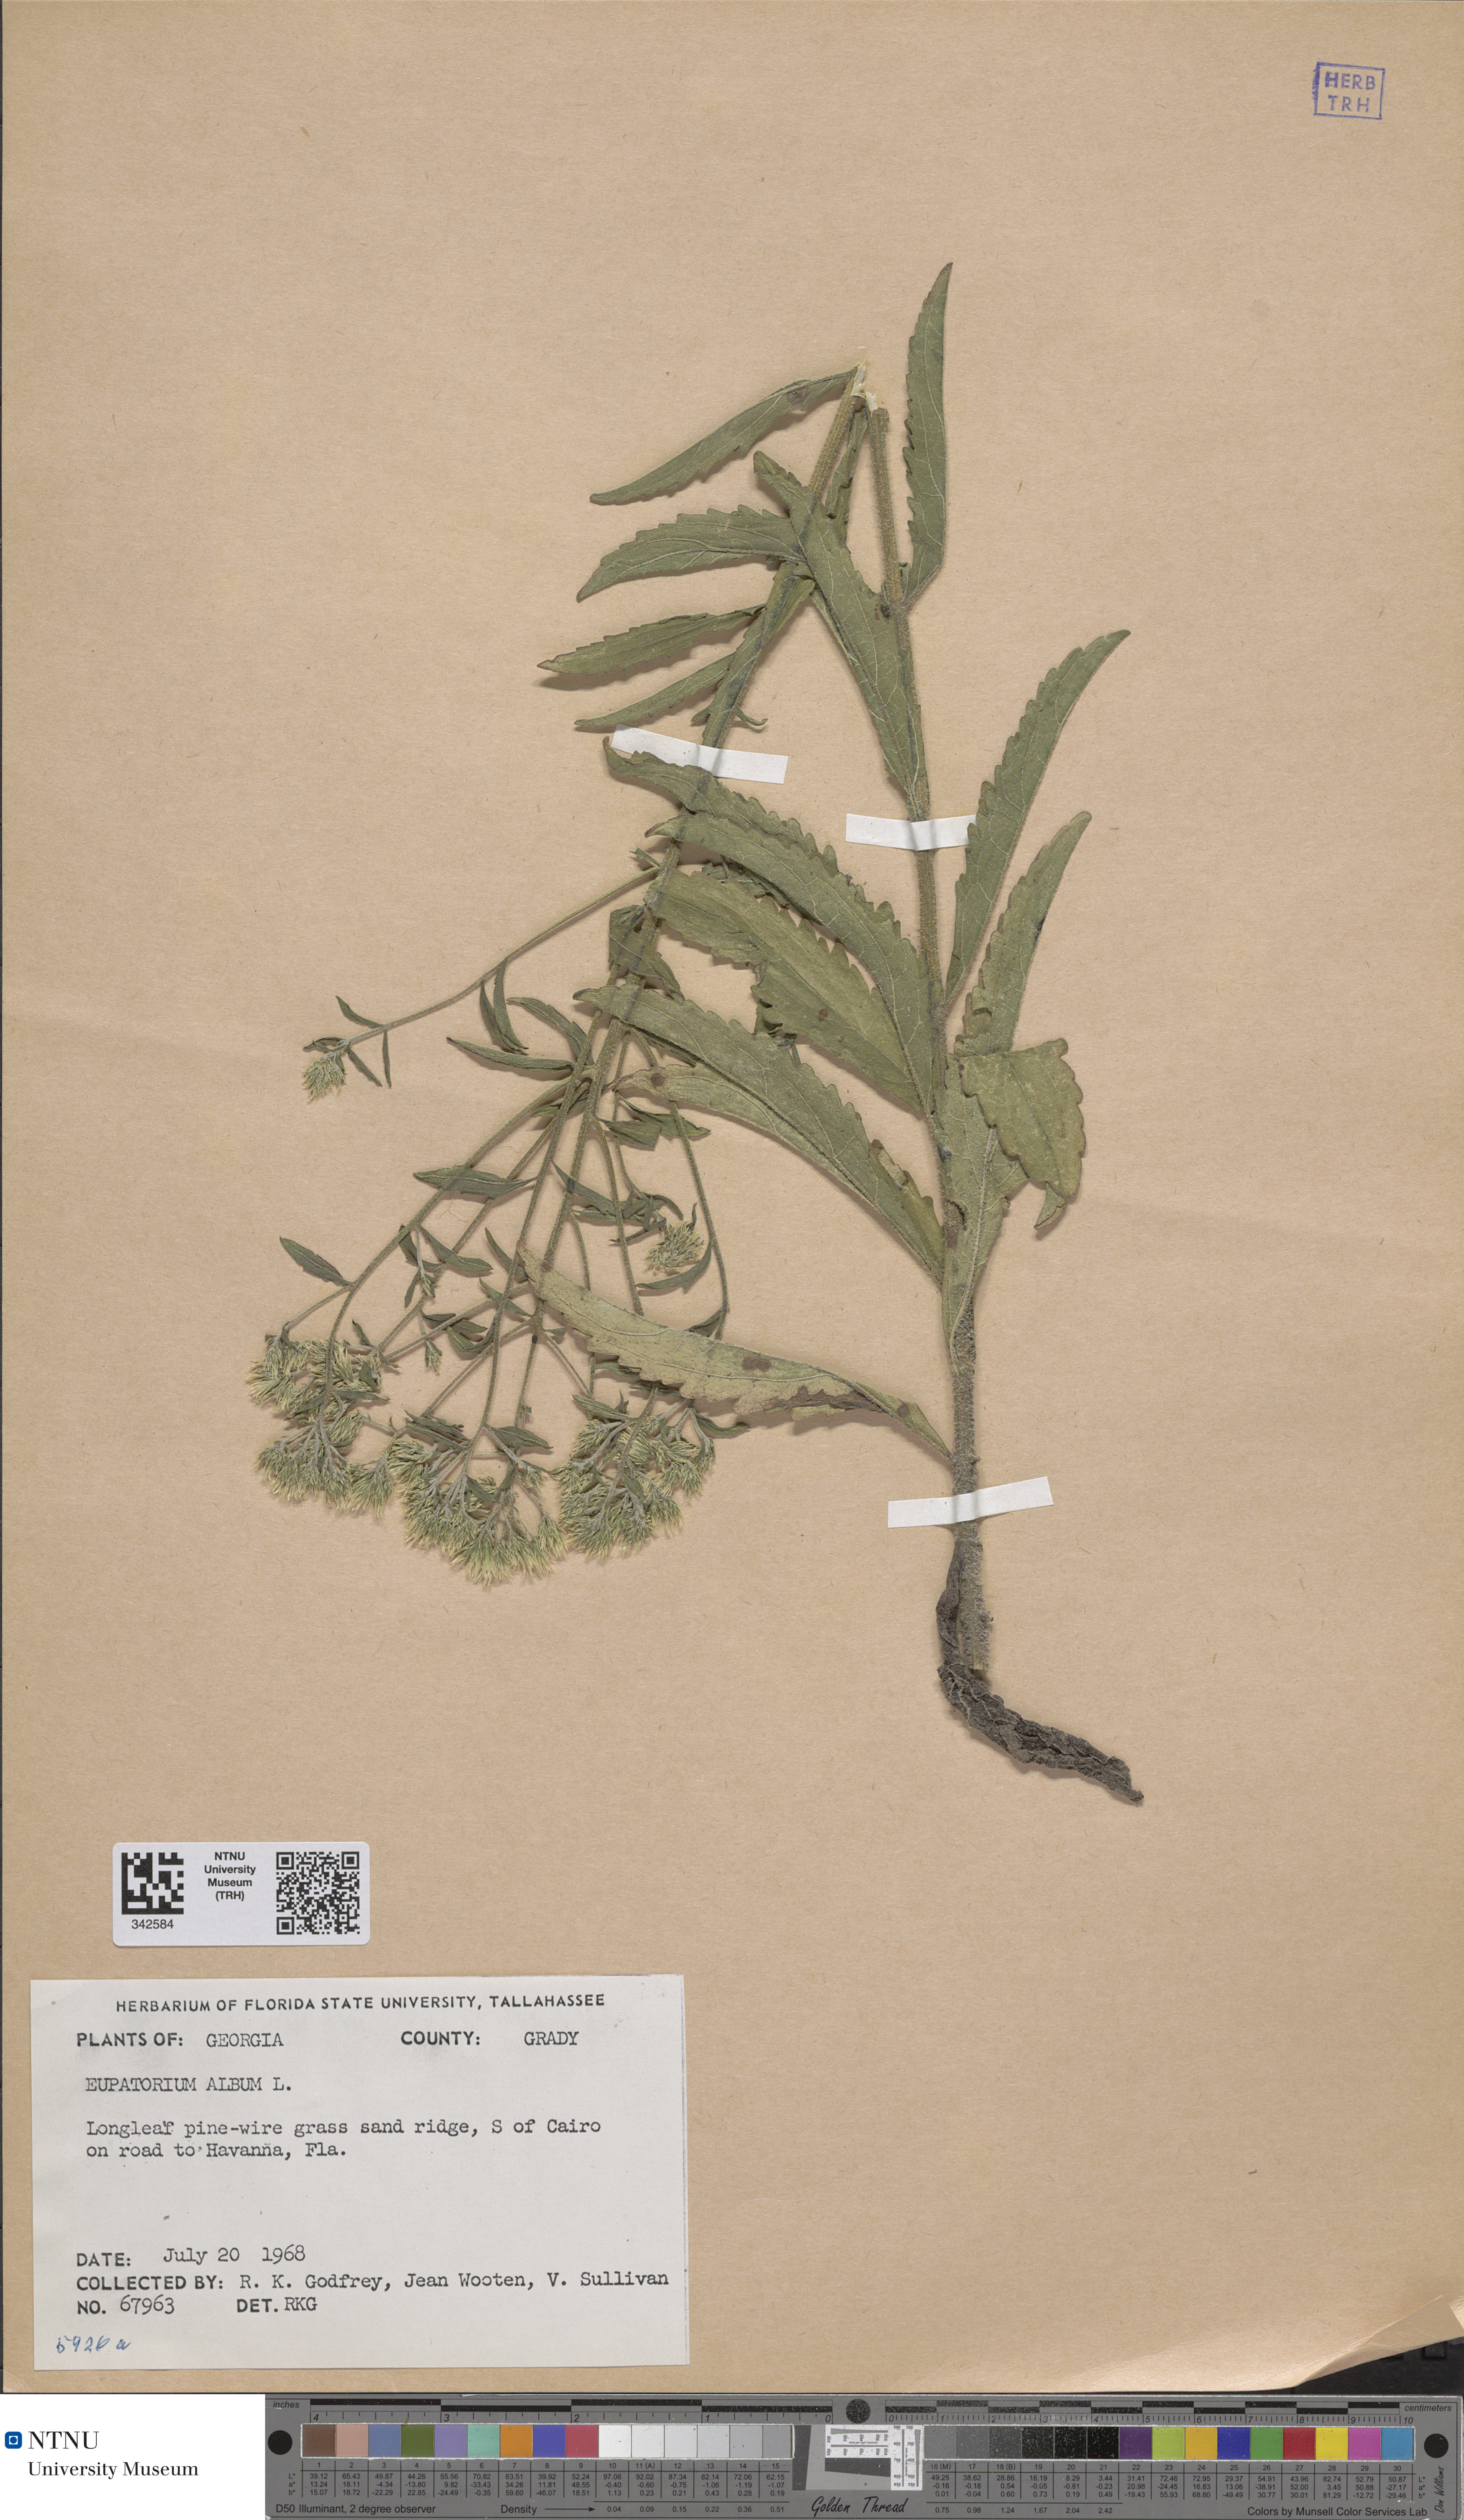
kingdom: Plantae
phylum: Tracheophyta
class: Magnoliopsida
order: Asterales
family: Asteraceae
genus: Eupatorium
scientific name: Eupatorium album
